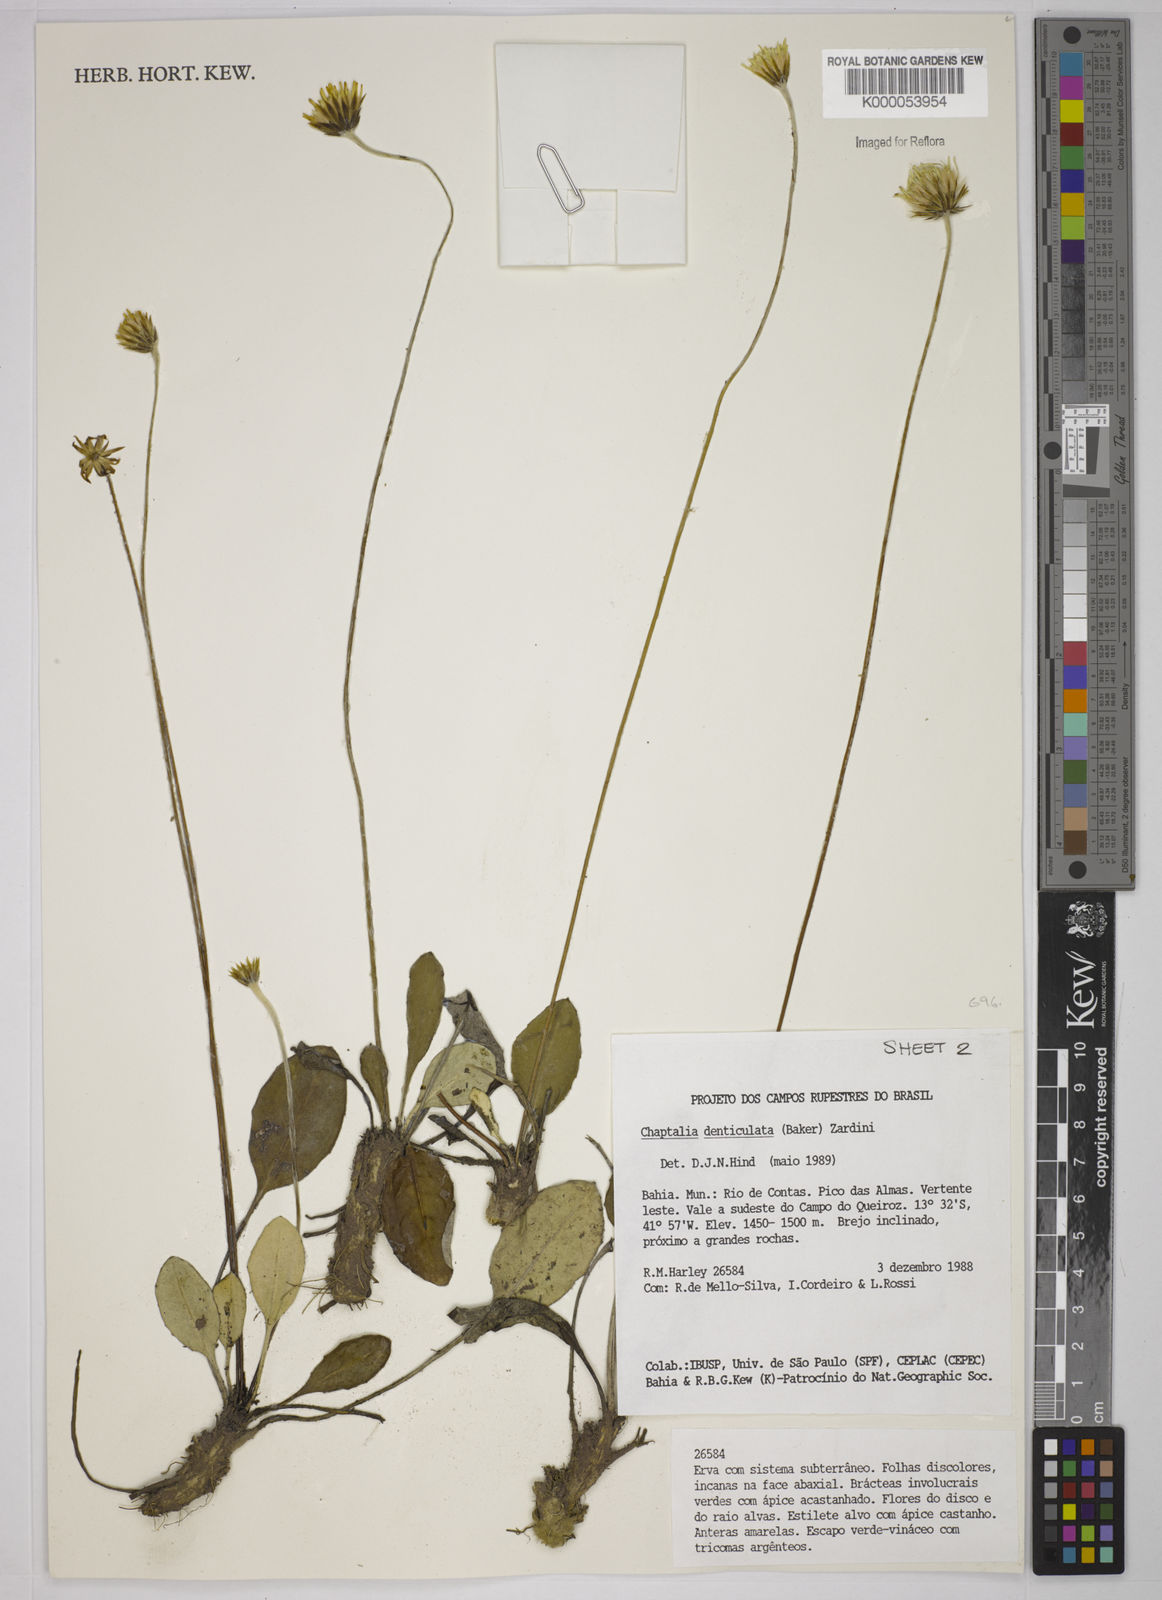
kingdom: Plantae
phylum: Tracheophyta
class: Magnoliopsida
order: Asterales
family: Asteraceae
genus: Chaptalia
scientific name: Chaptalia denticulata
